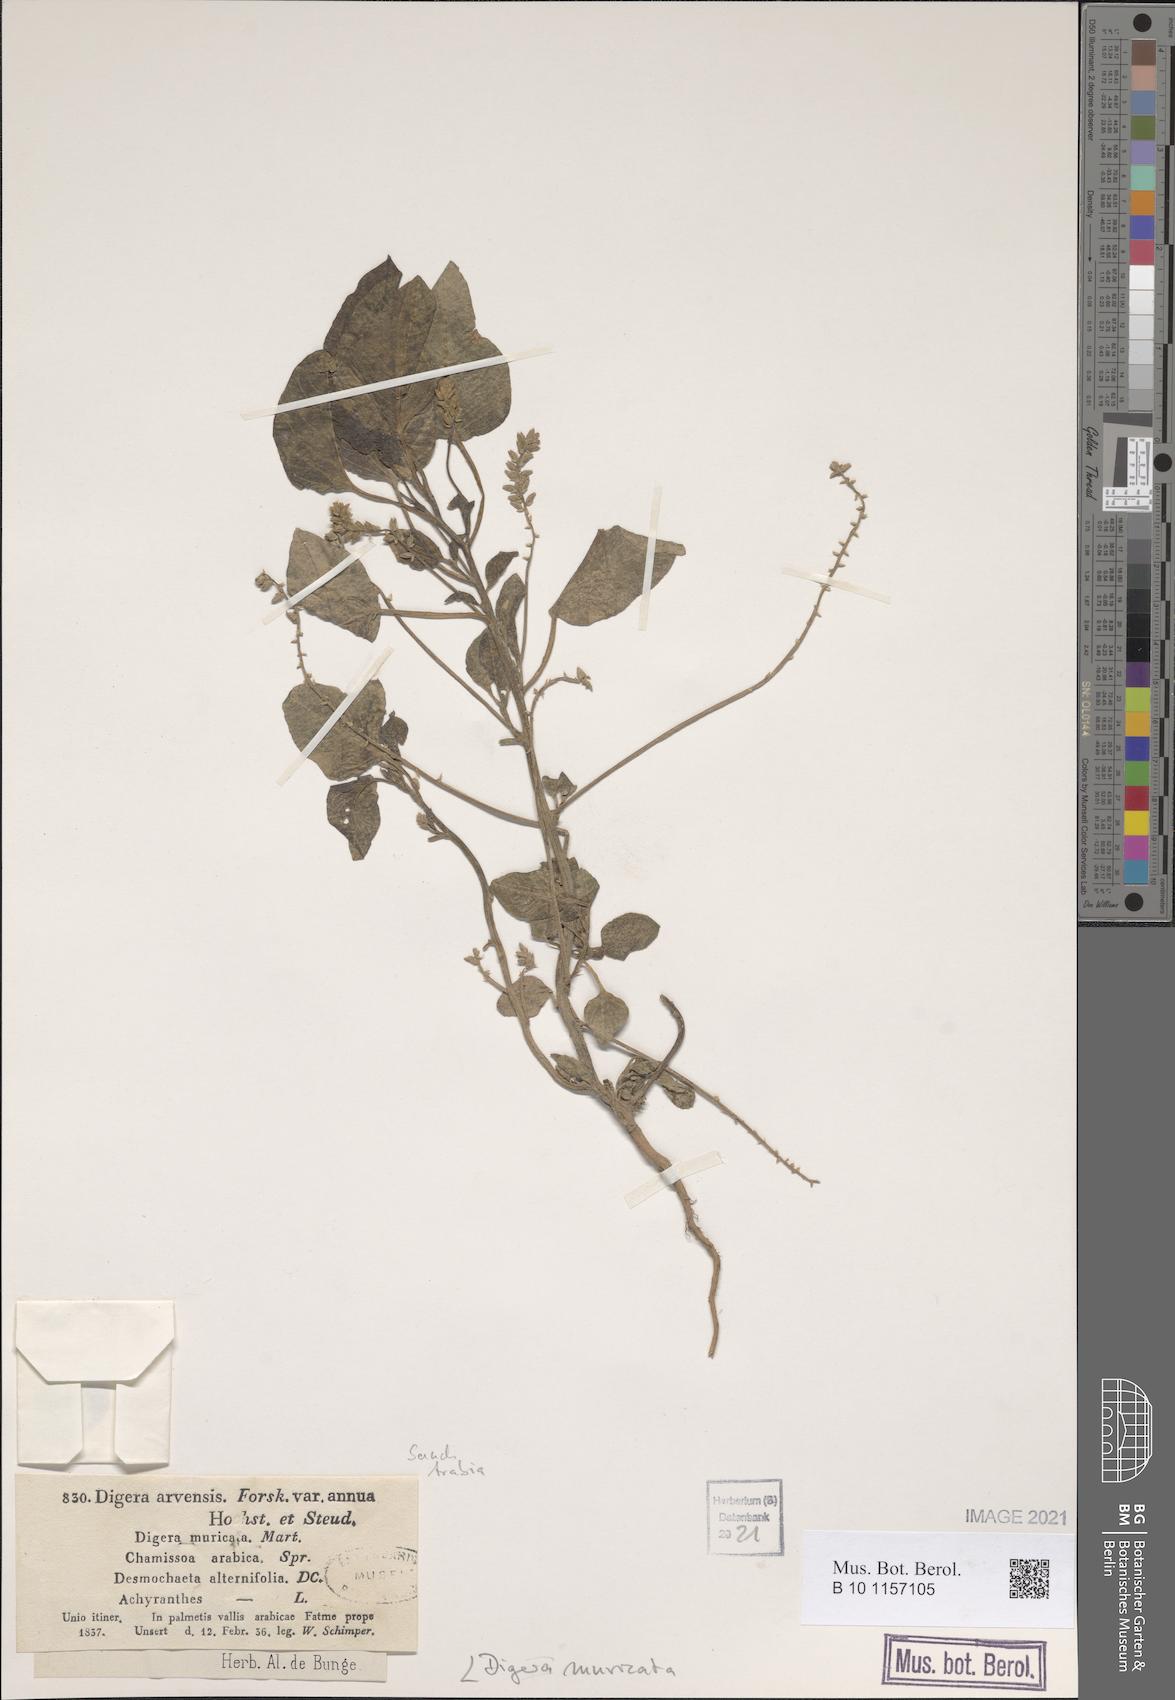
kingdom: Plantae
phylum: Tracheophyta
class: Magnoliopsida
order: Caryophyllales
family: Amaranthaceae
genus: Digera
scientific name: Digera muricata
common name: False amaranth
